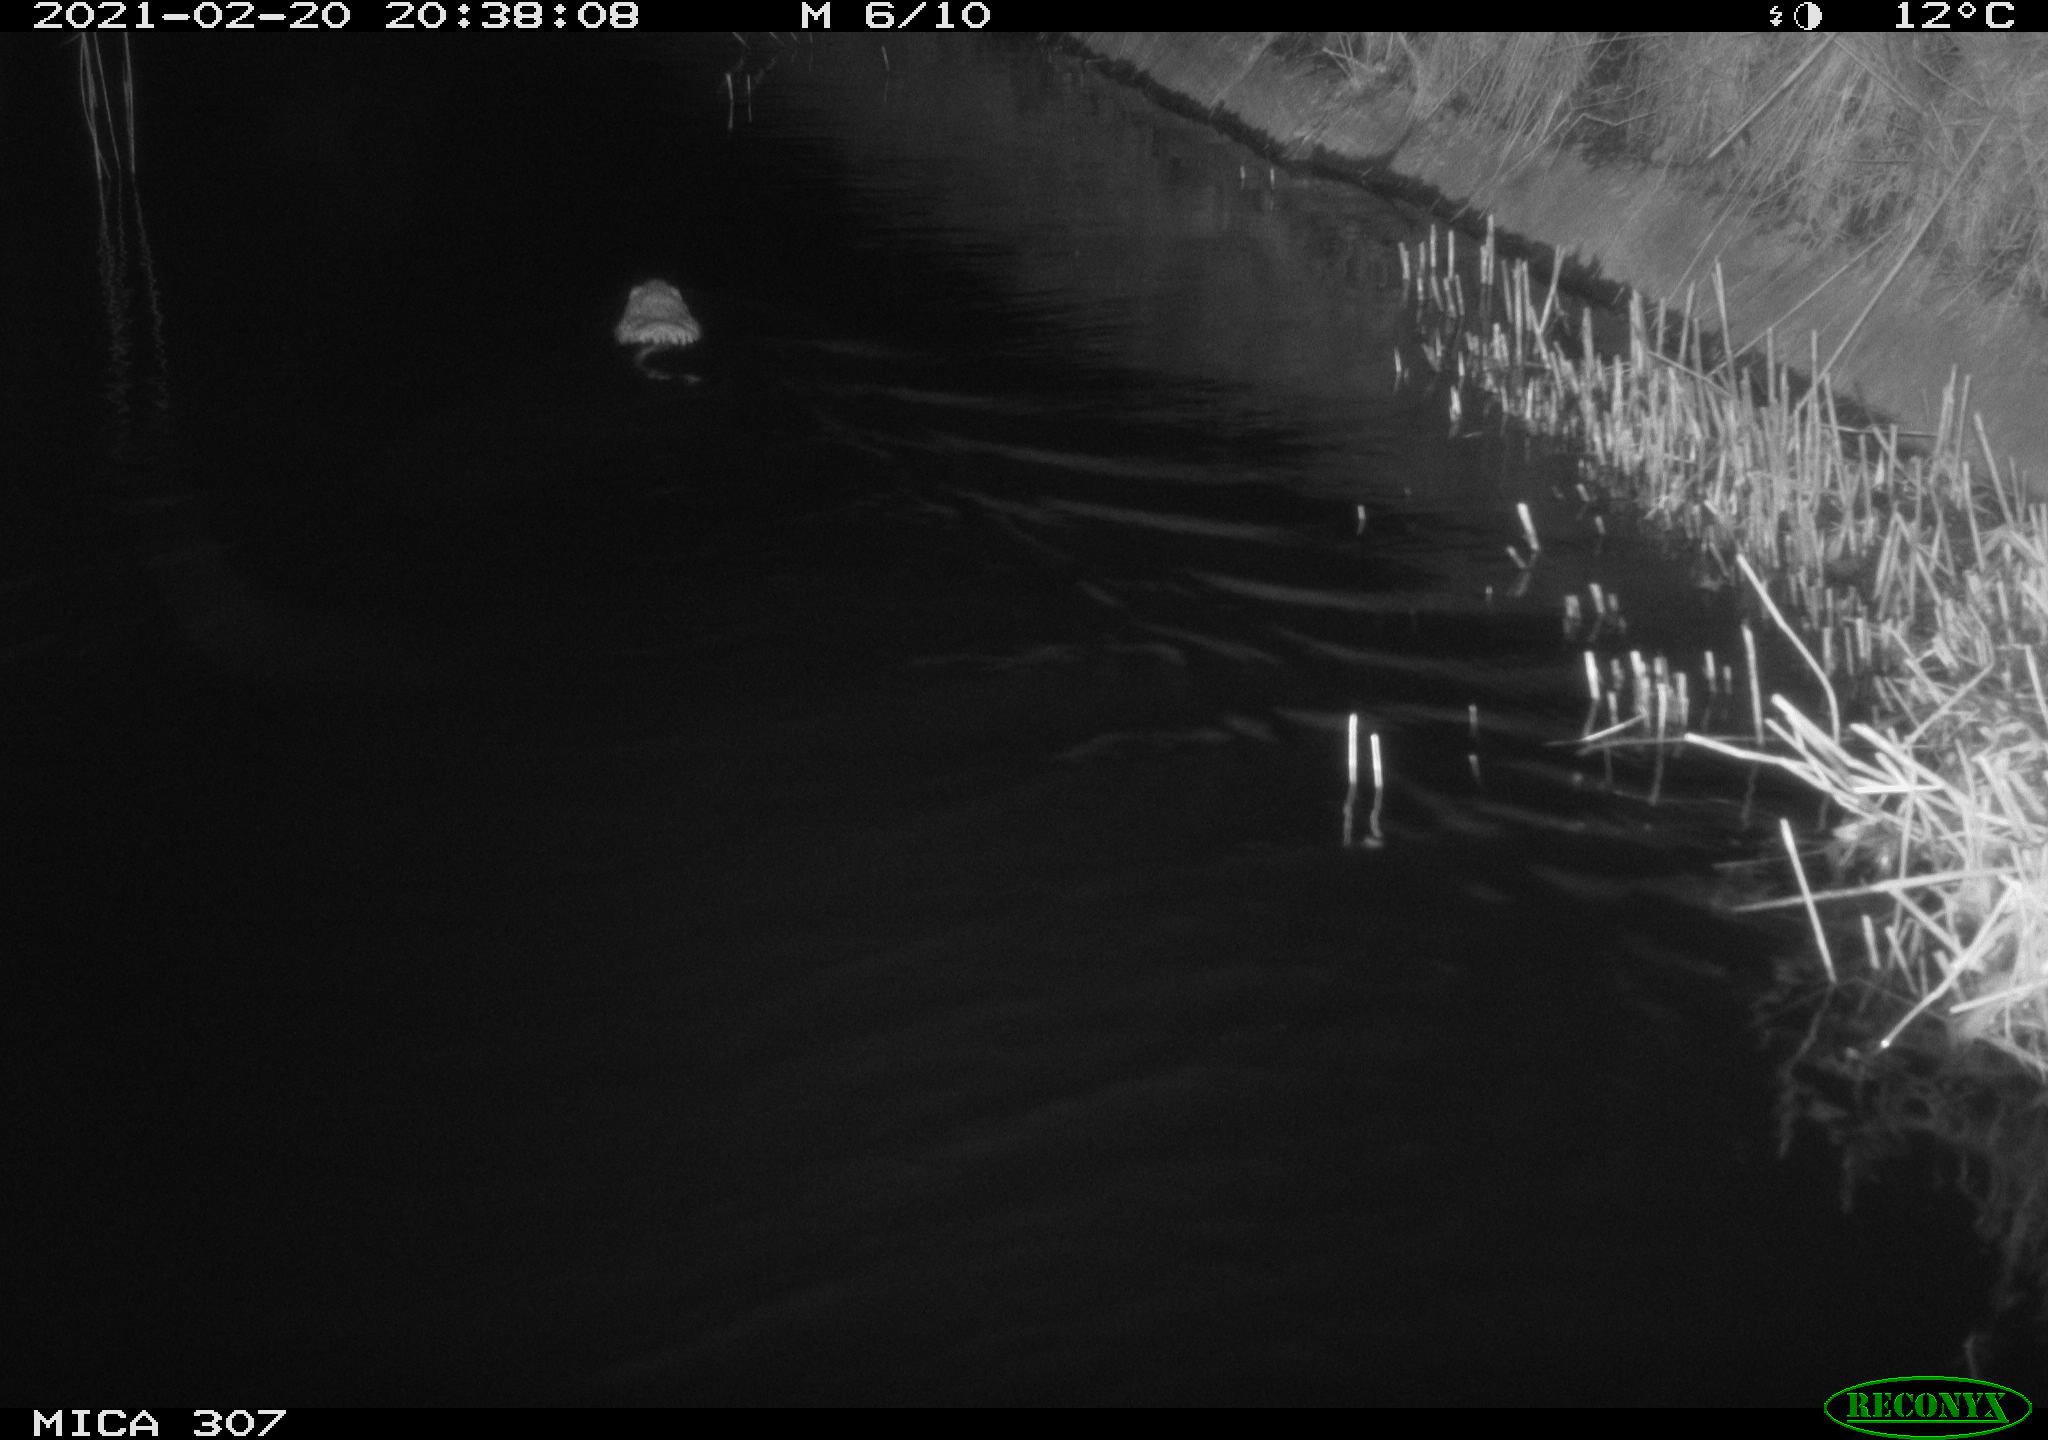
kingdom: Animalia
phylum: Chordata
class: Mammalia
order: Rodentia
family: Cricetidae
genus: Ondatra
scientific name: Ondatra zibethicus
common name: Muskrat
